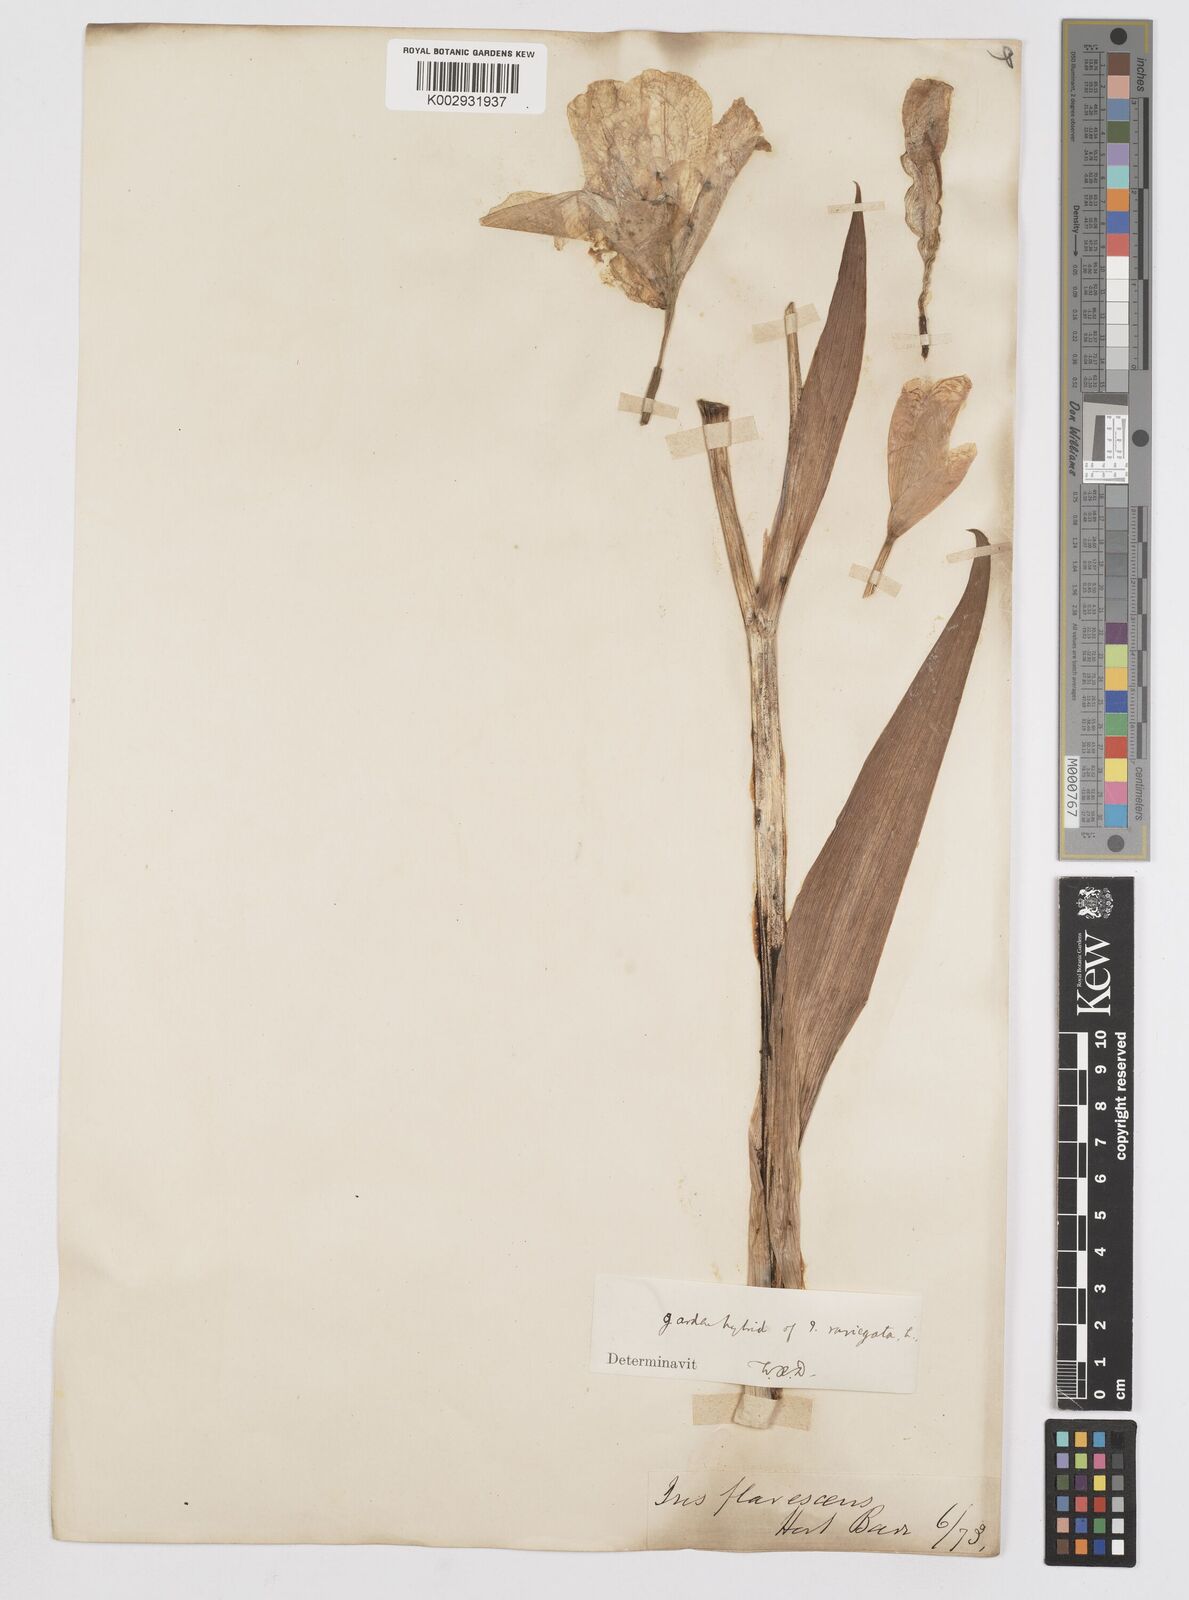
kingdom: Plantae
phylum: Tracheophyta
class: Liliopsida
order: Asparagales
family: Iridaceae
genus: Iris
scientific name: Iris variegata
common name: Hungarian iris
